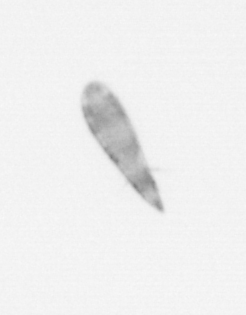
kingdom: Animalia
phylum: Arthropoda
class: Copepoda
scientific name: Copepoda
